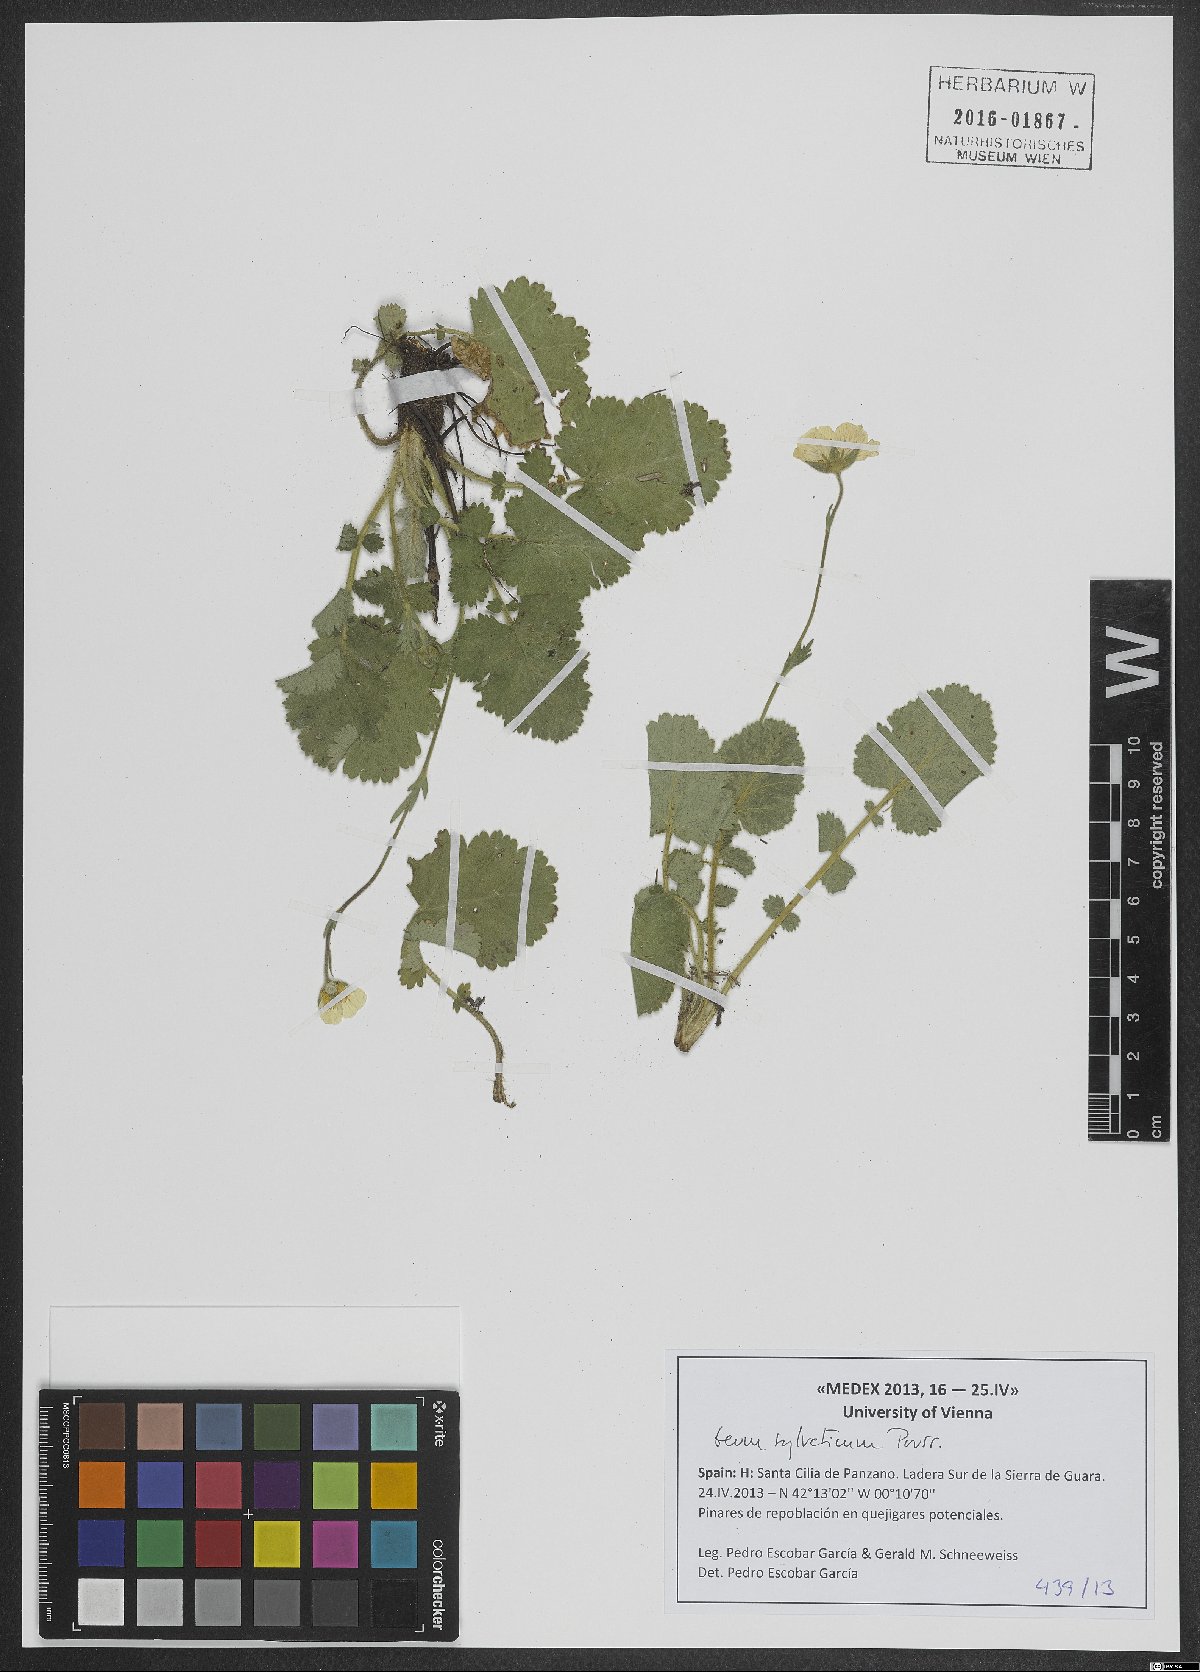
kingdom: Plantae
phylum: Tracheophyta
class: Magnoliopsida
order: Rosales
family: Rosaceae
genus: Geum
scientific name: Geum sylvaticum
